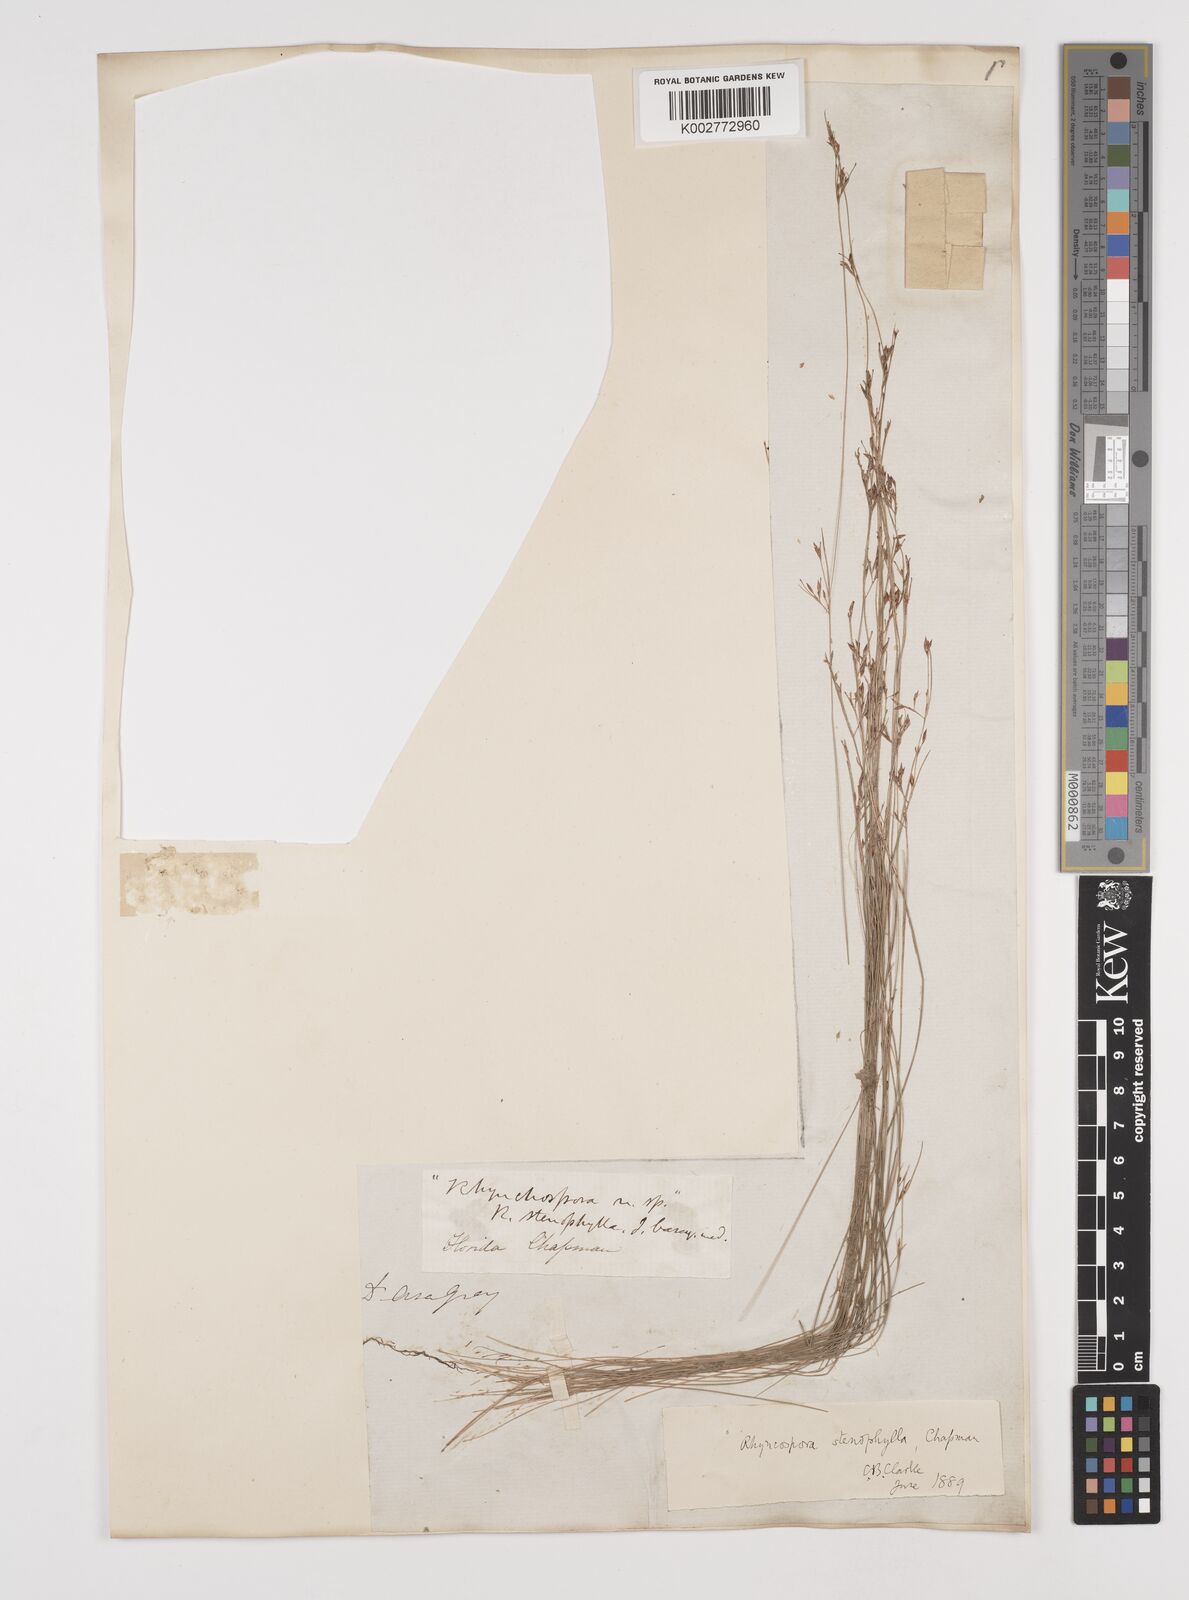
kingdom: Plantae
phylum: Tracheophyta
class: Liliopsida
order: Poales
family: Cyperaceae
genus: Rhynchospora
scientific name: Rhynchospora stenophylla
